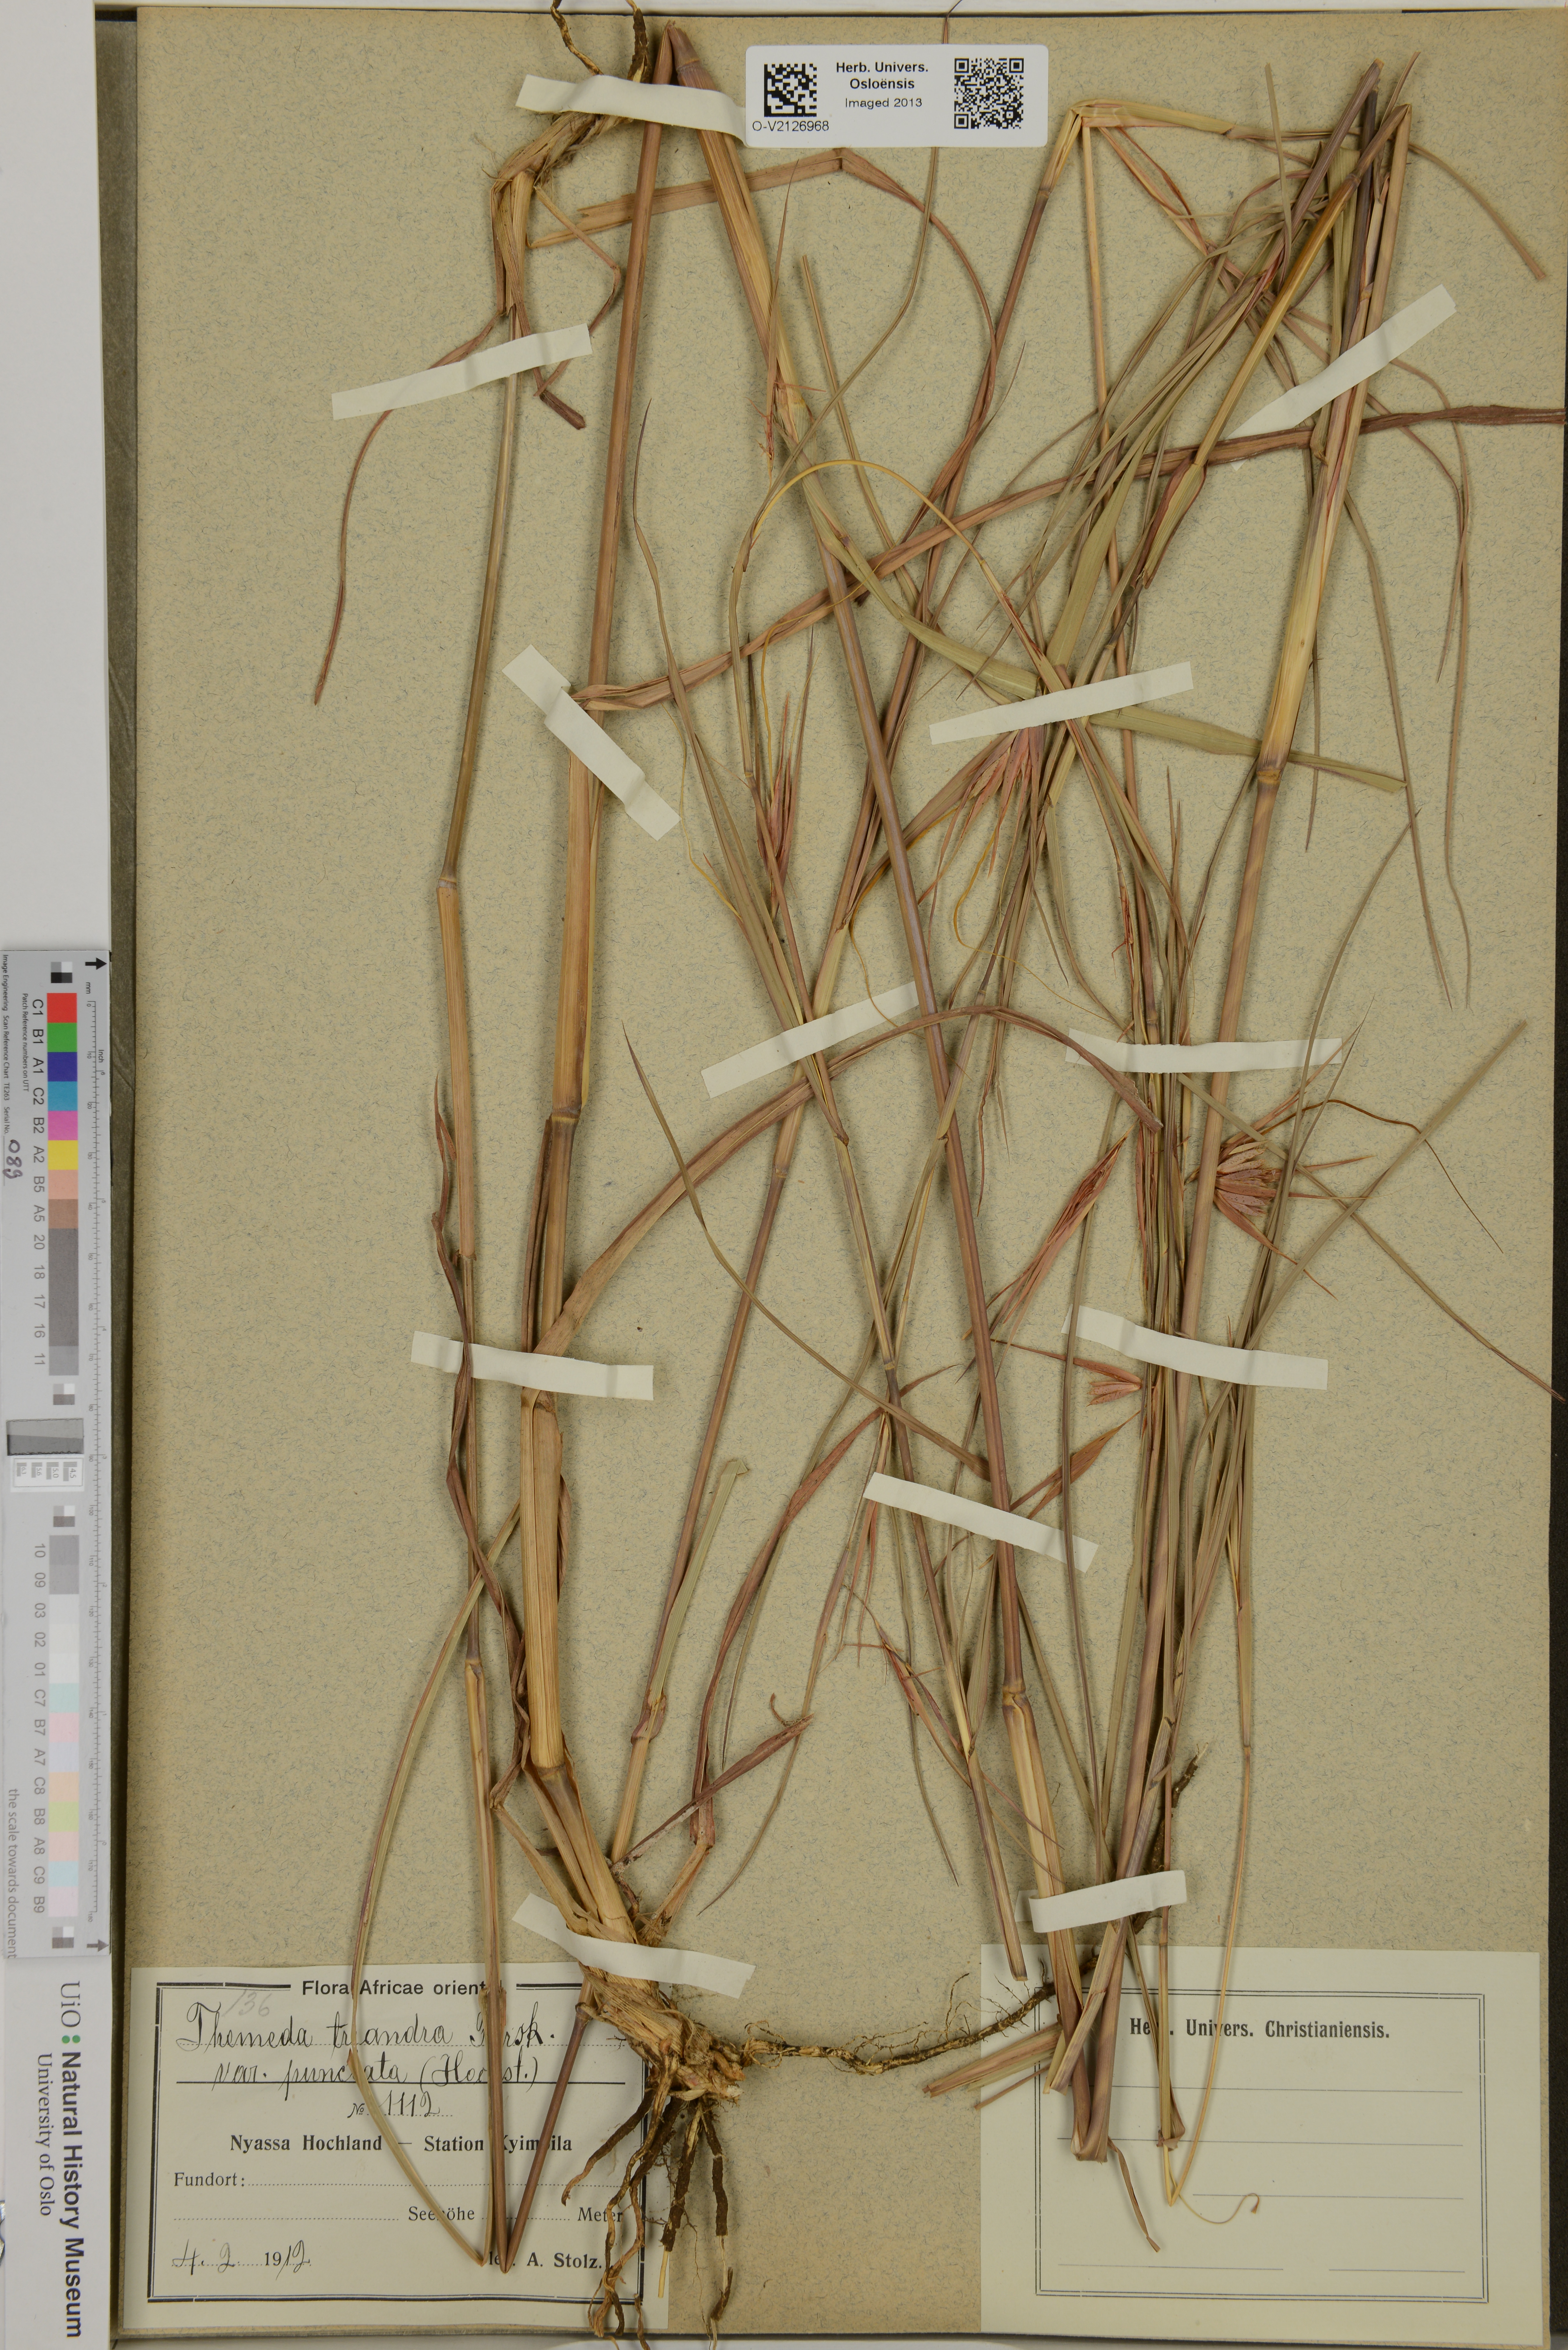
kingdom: Plantae
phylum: Tracheophyta
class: Liliopsida
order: Poales
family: Poaceae
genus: Themeda
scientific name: Themeda triandra
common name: Kangaroo grass
